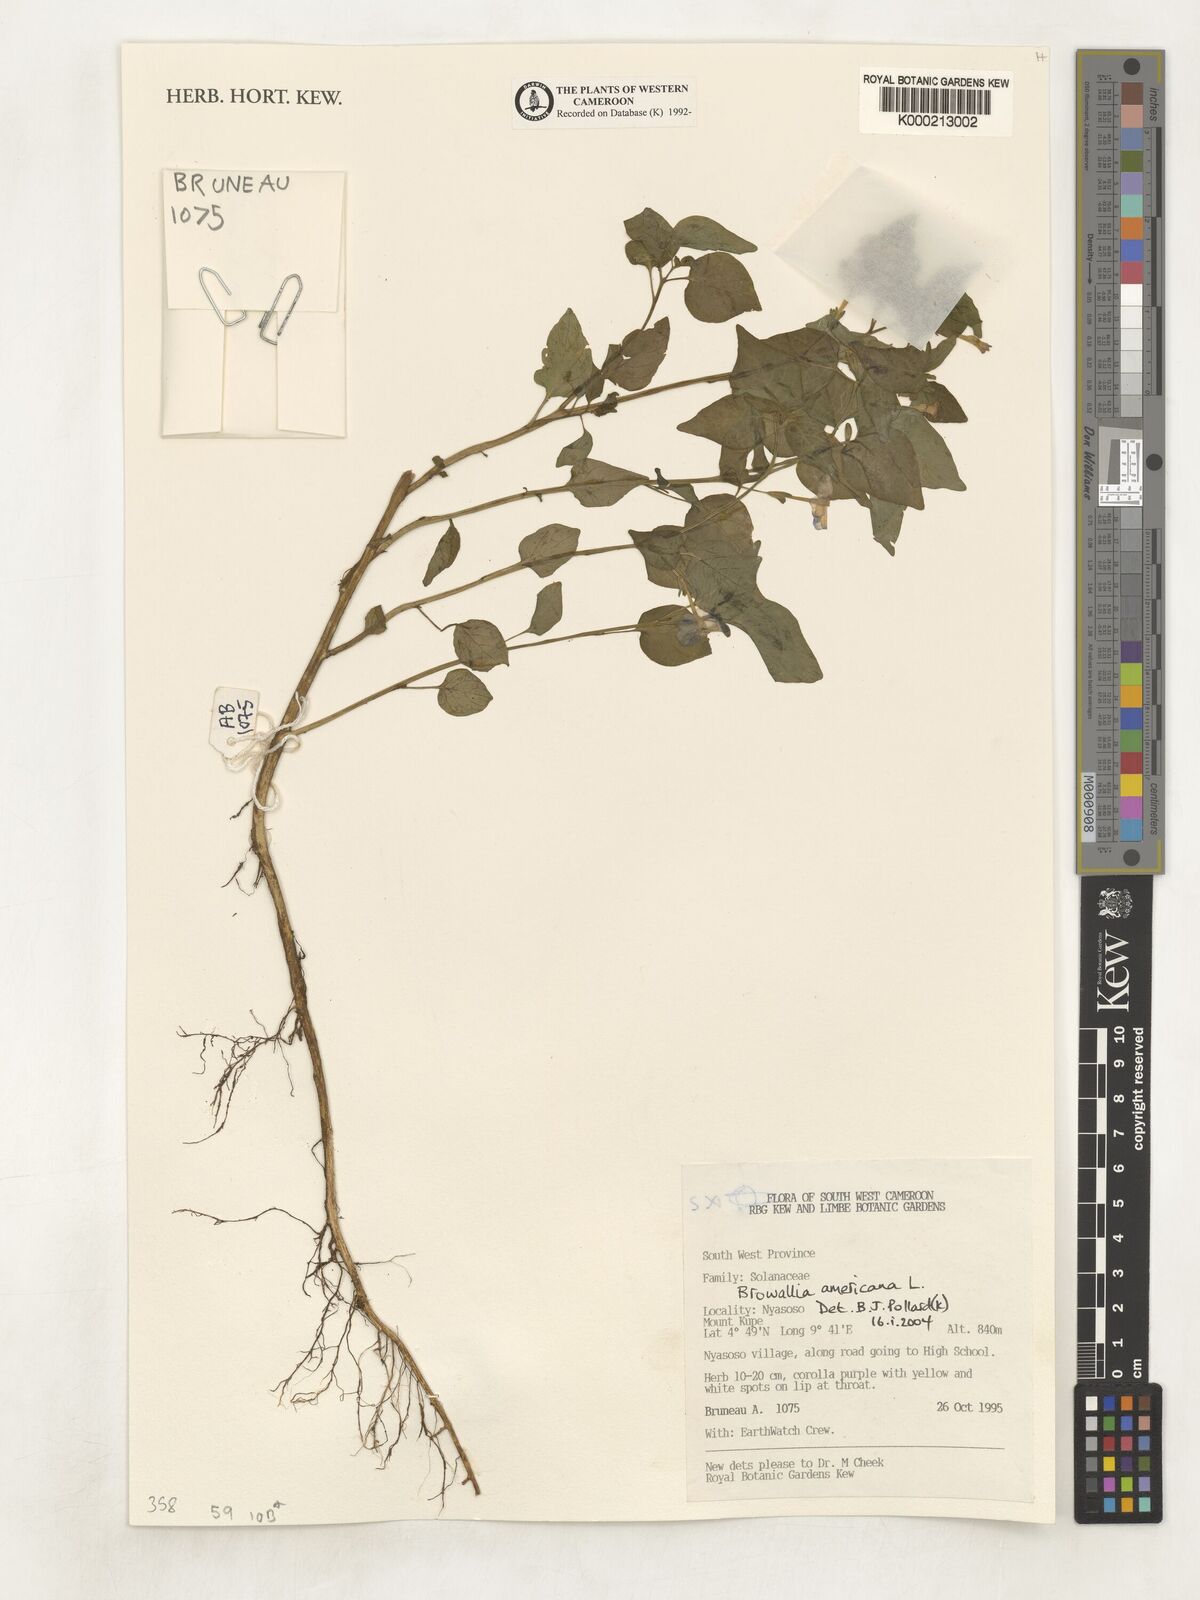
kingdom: Plantae
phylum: Tracheophyta
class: Magnoliopsida
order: Solanales
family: Solanaceae
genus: Browallia
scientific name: Browallia americana
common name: Jamaican forget-me-not
